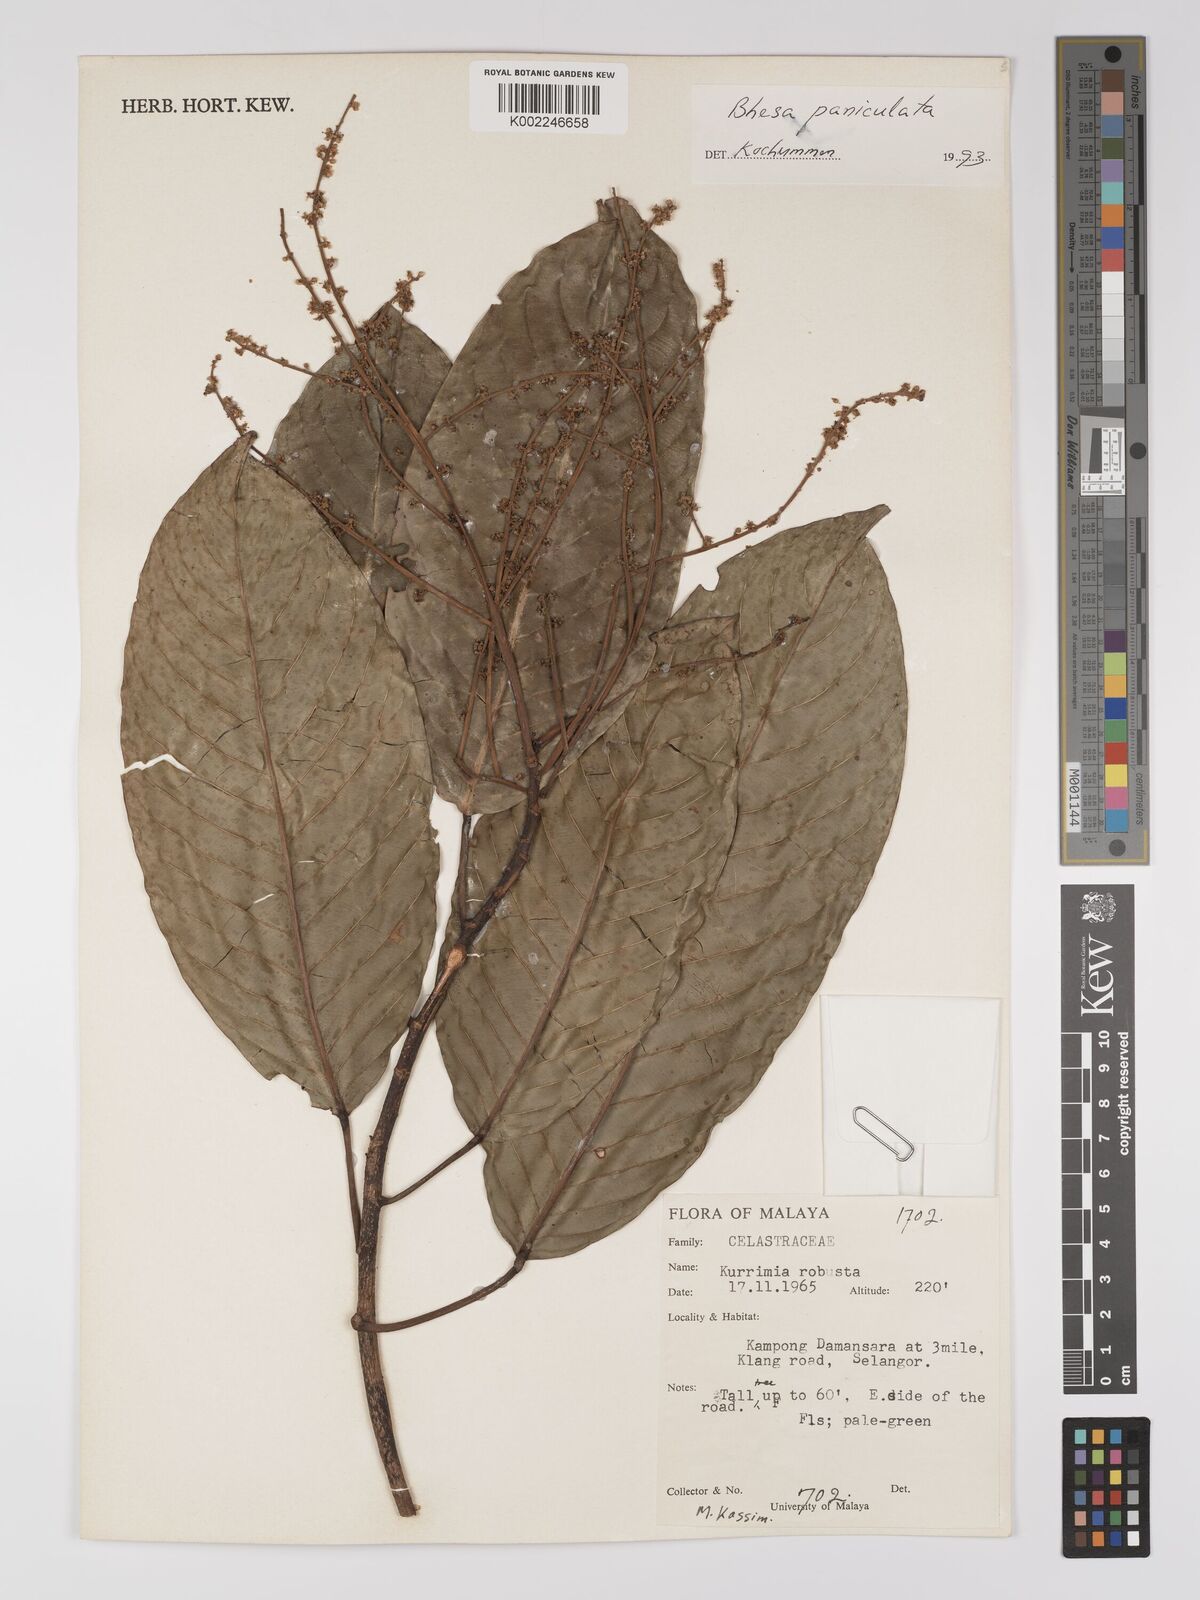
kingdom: Plantae
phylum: Tracheophyta
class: Magnoliopsida
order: Malpighiales
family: Centroplacaceae
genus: Bhesa
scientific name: Bhesa paniculata
